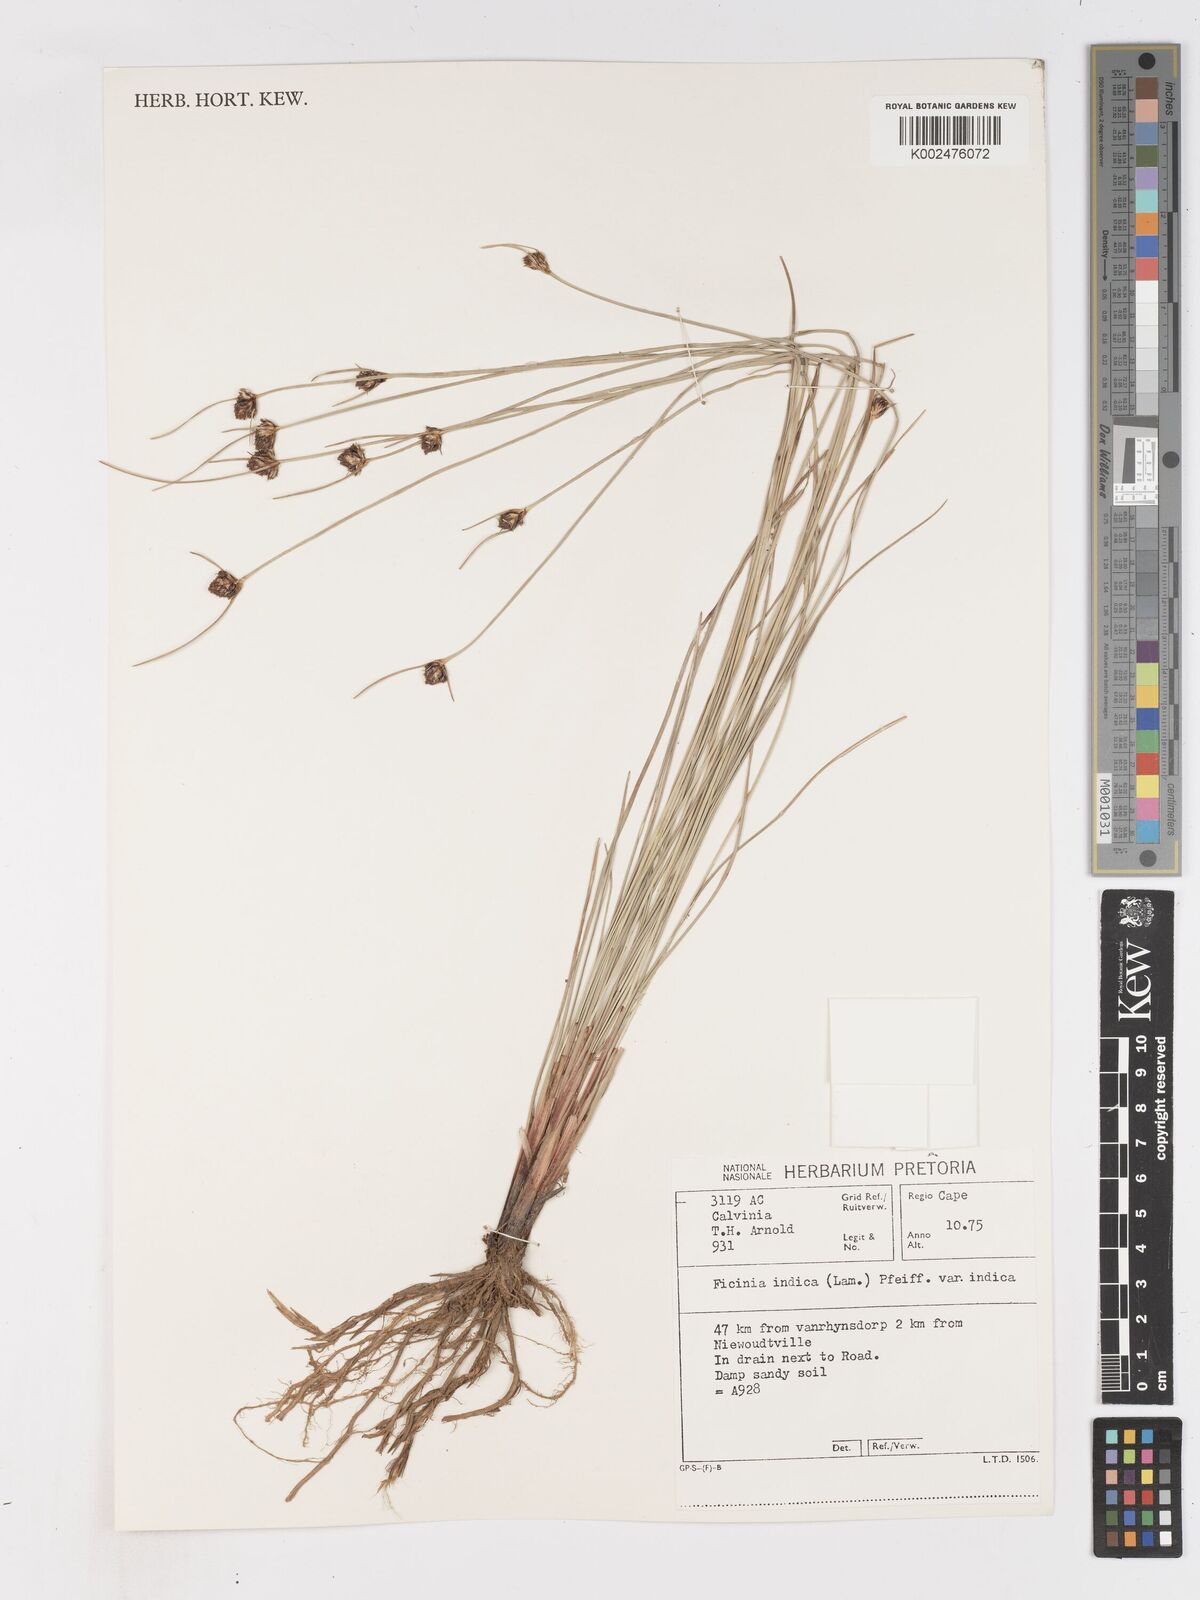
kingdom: Plantae
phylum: Tracheophyta
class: Liliopsida
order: Poales
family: Cyperaceae
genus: Ficinia
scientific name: Ficinia indica
